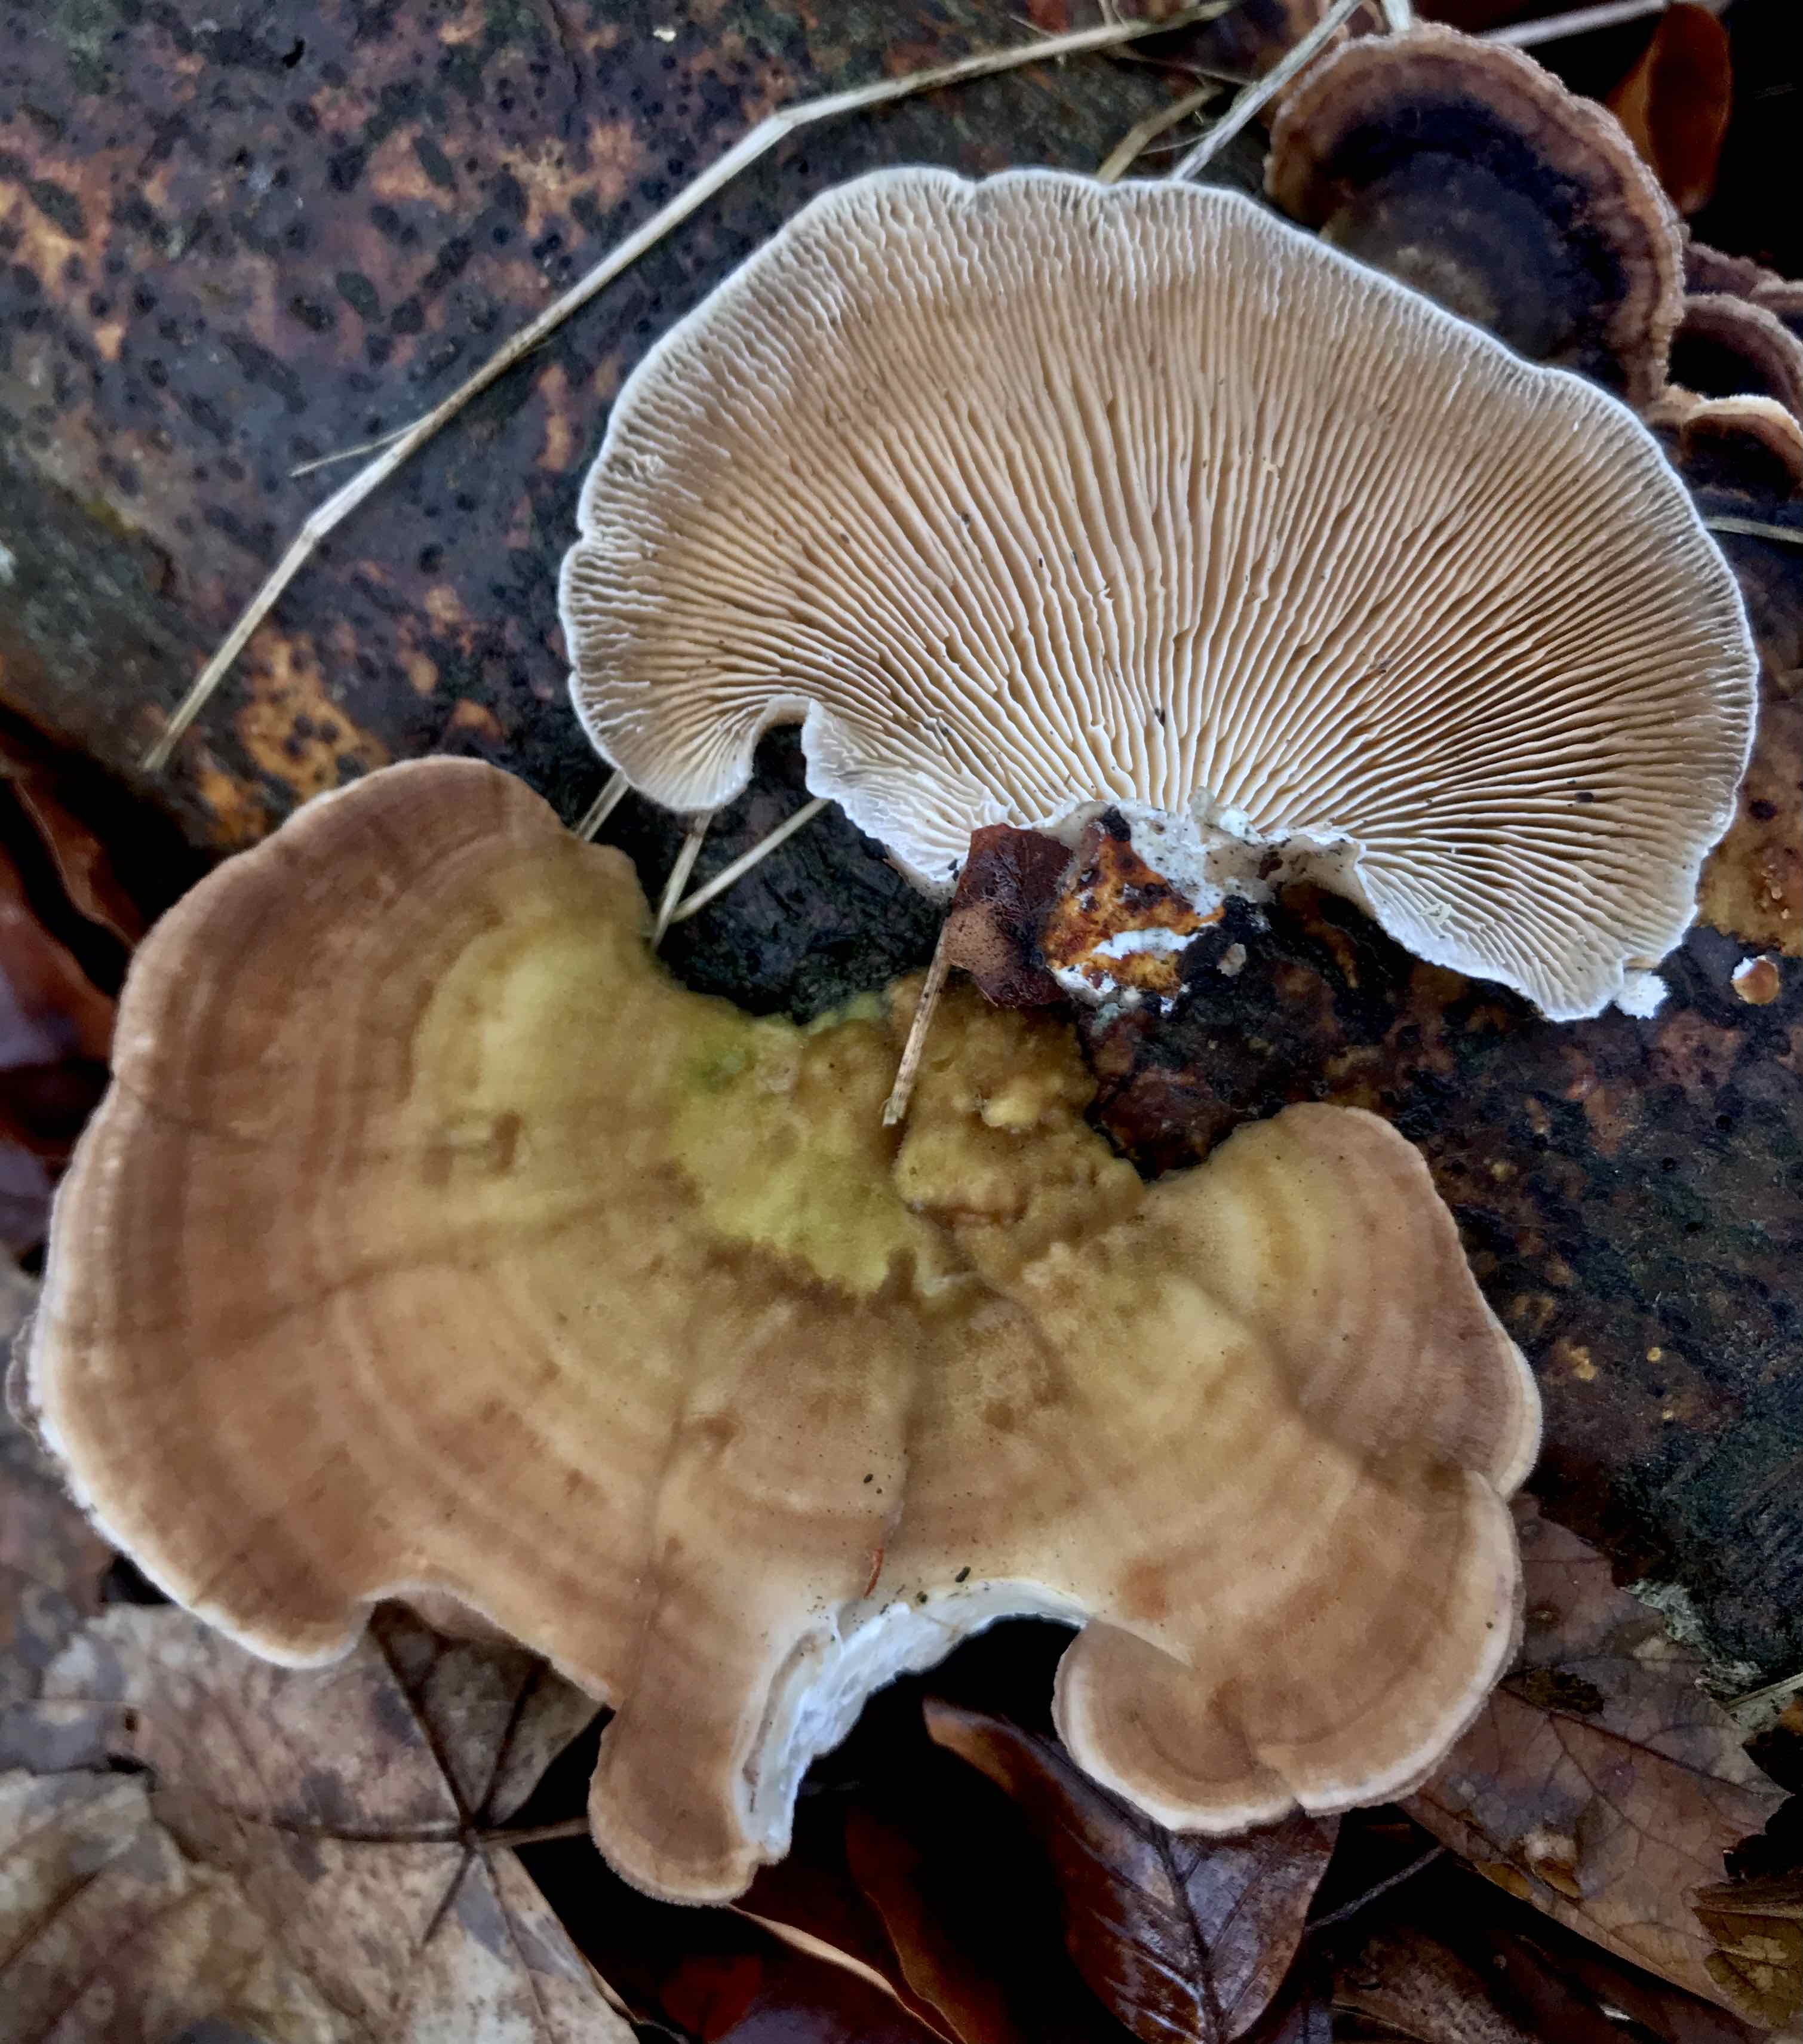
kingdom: Fungi
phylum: Basidiomycota
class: Agaricomycetes
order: Polyporales
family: Polyporaceae
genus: Lenzites
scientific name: Lenzites betulinus
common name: birke-læderporesvamp
